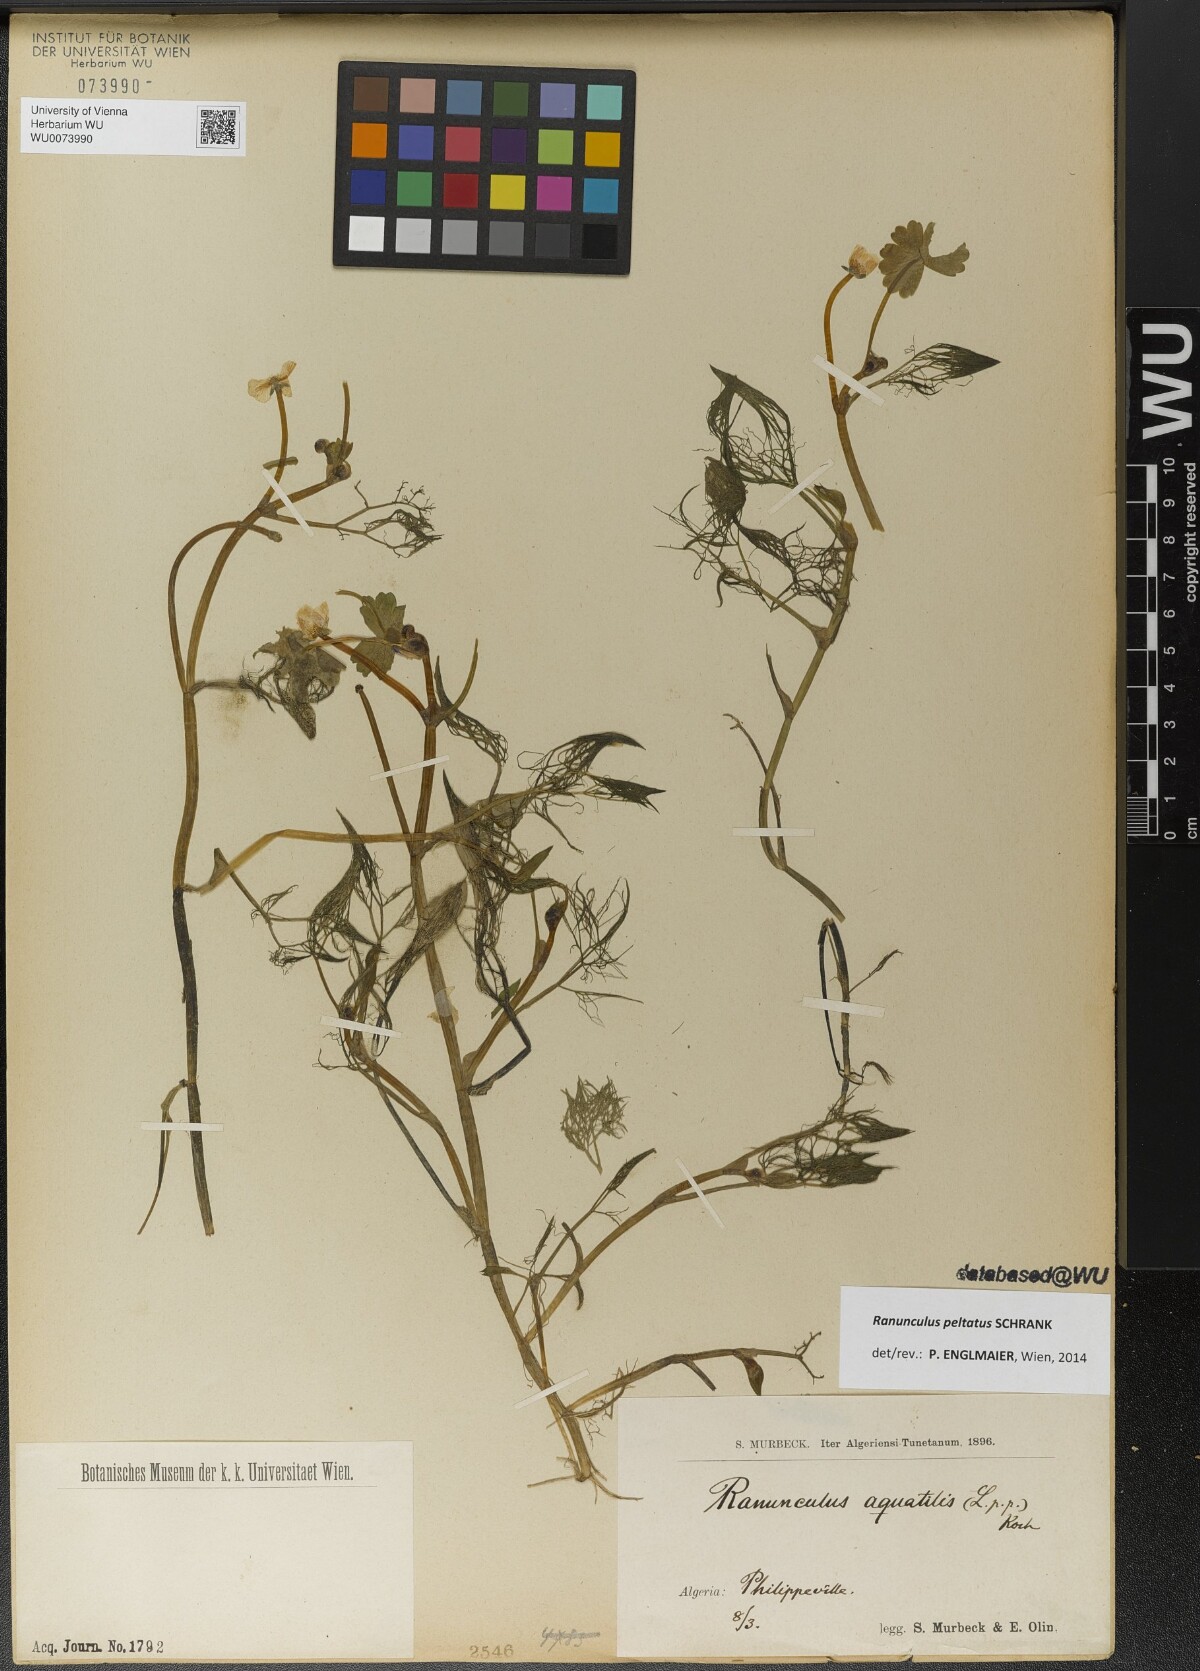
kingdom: Plantae
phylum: Tracheophyta
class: Magnoliopsida
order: Ranunculales
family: Ranunculaceae
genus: Ranunculus
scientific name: Ranunculus peltatus
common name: Pond water-crowfoot
